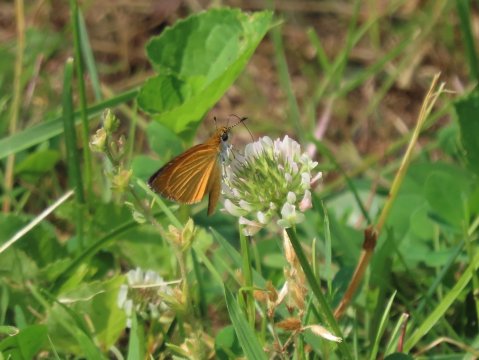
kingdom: Animalia
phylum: Arthropoda
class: Insecta
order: Lepidoptera
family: Hesperiidae
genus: Ancyloxypha
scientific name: Ancyloxypha numitor
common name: Least Skipper
